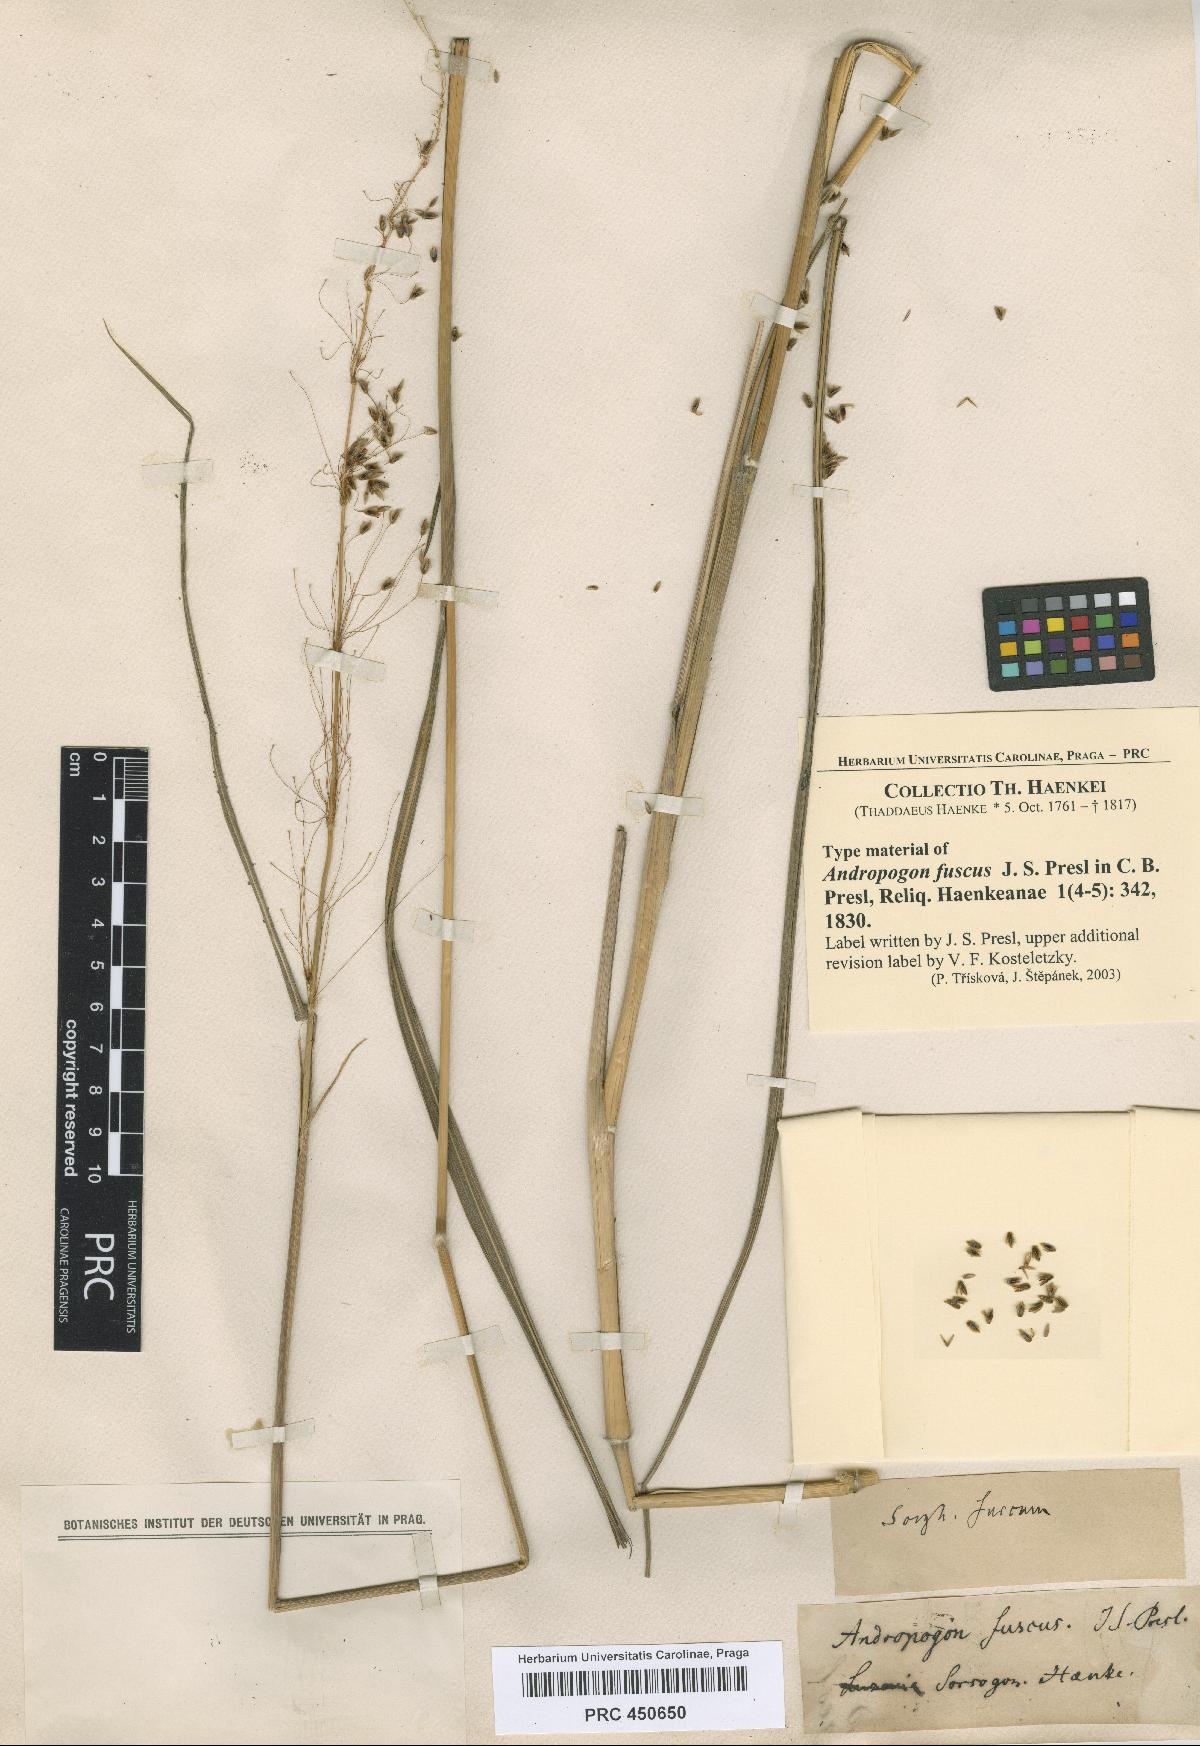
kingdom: Plantae
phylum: Tracheophyta
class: Liliopsida
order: Poales
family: Poaceae
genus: Sorghum
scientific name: Sorghum nitidum
